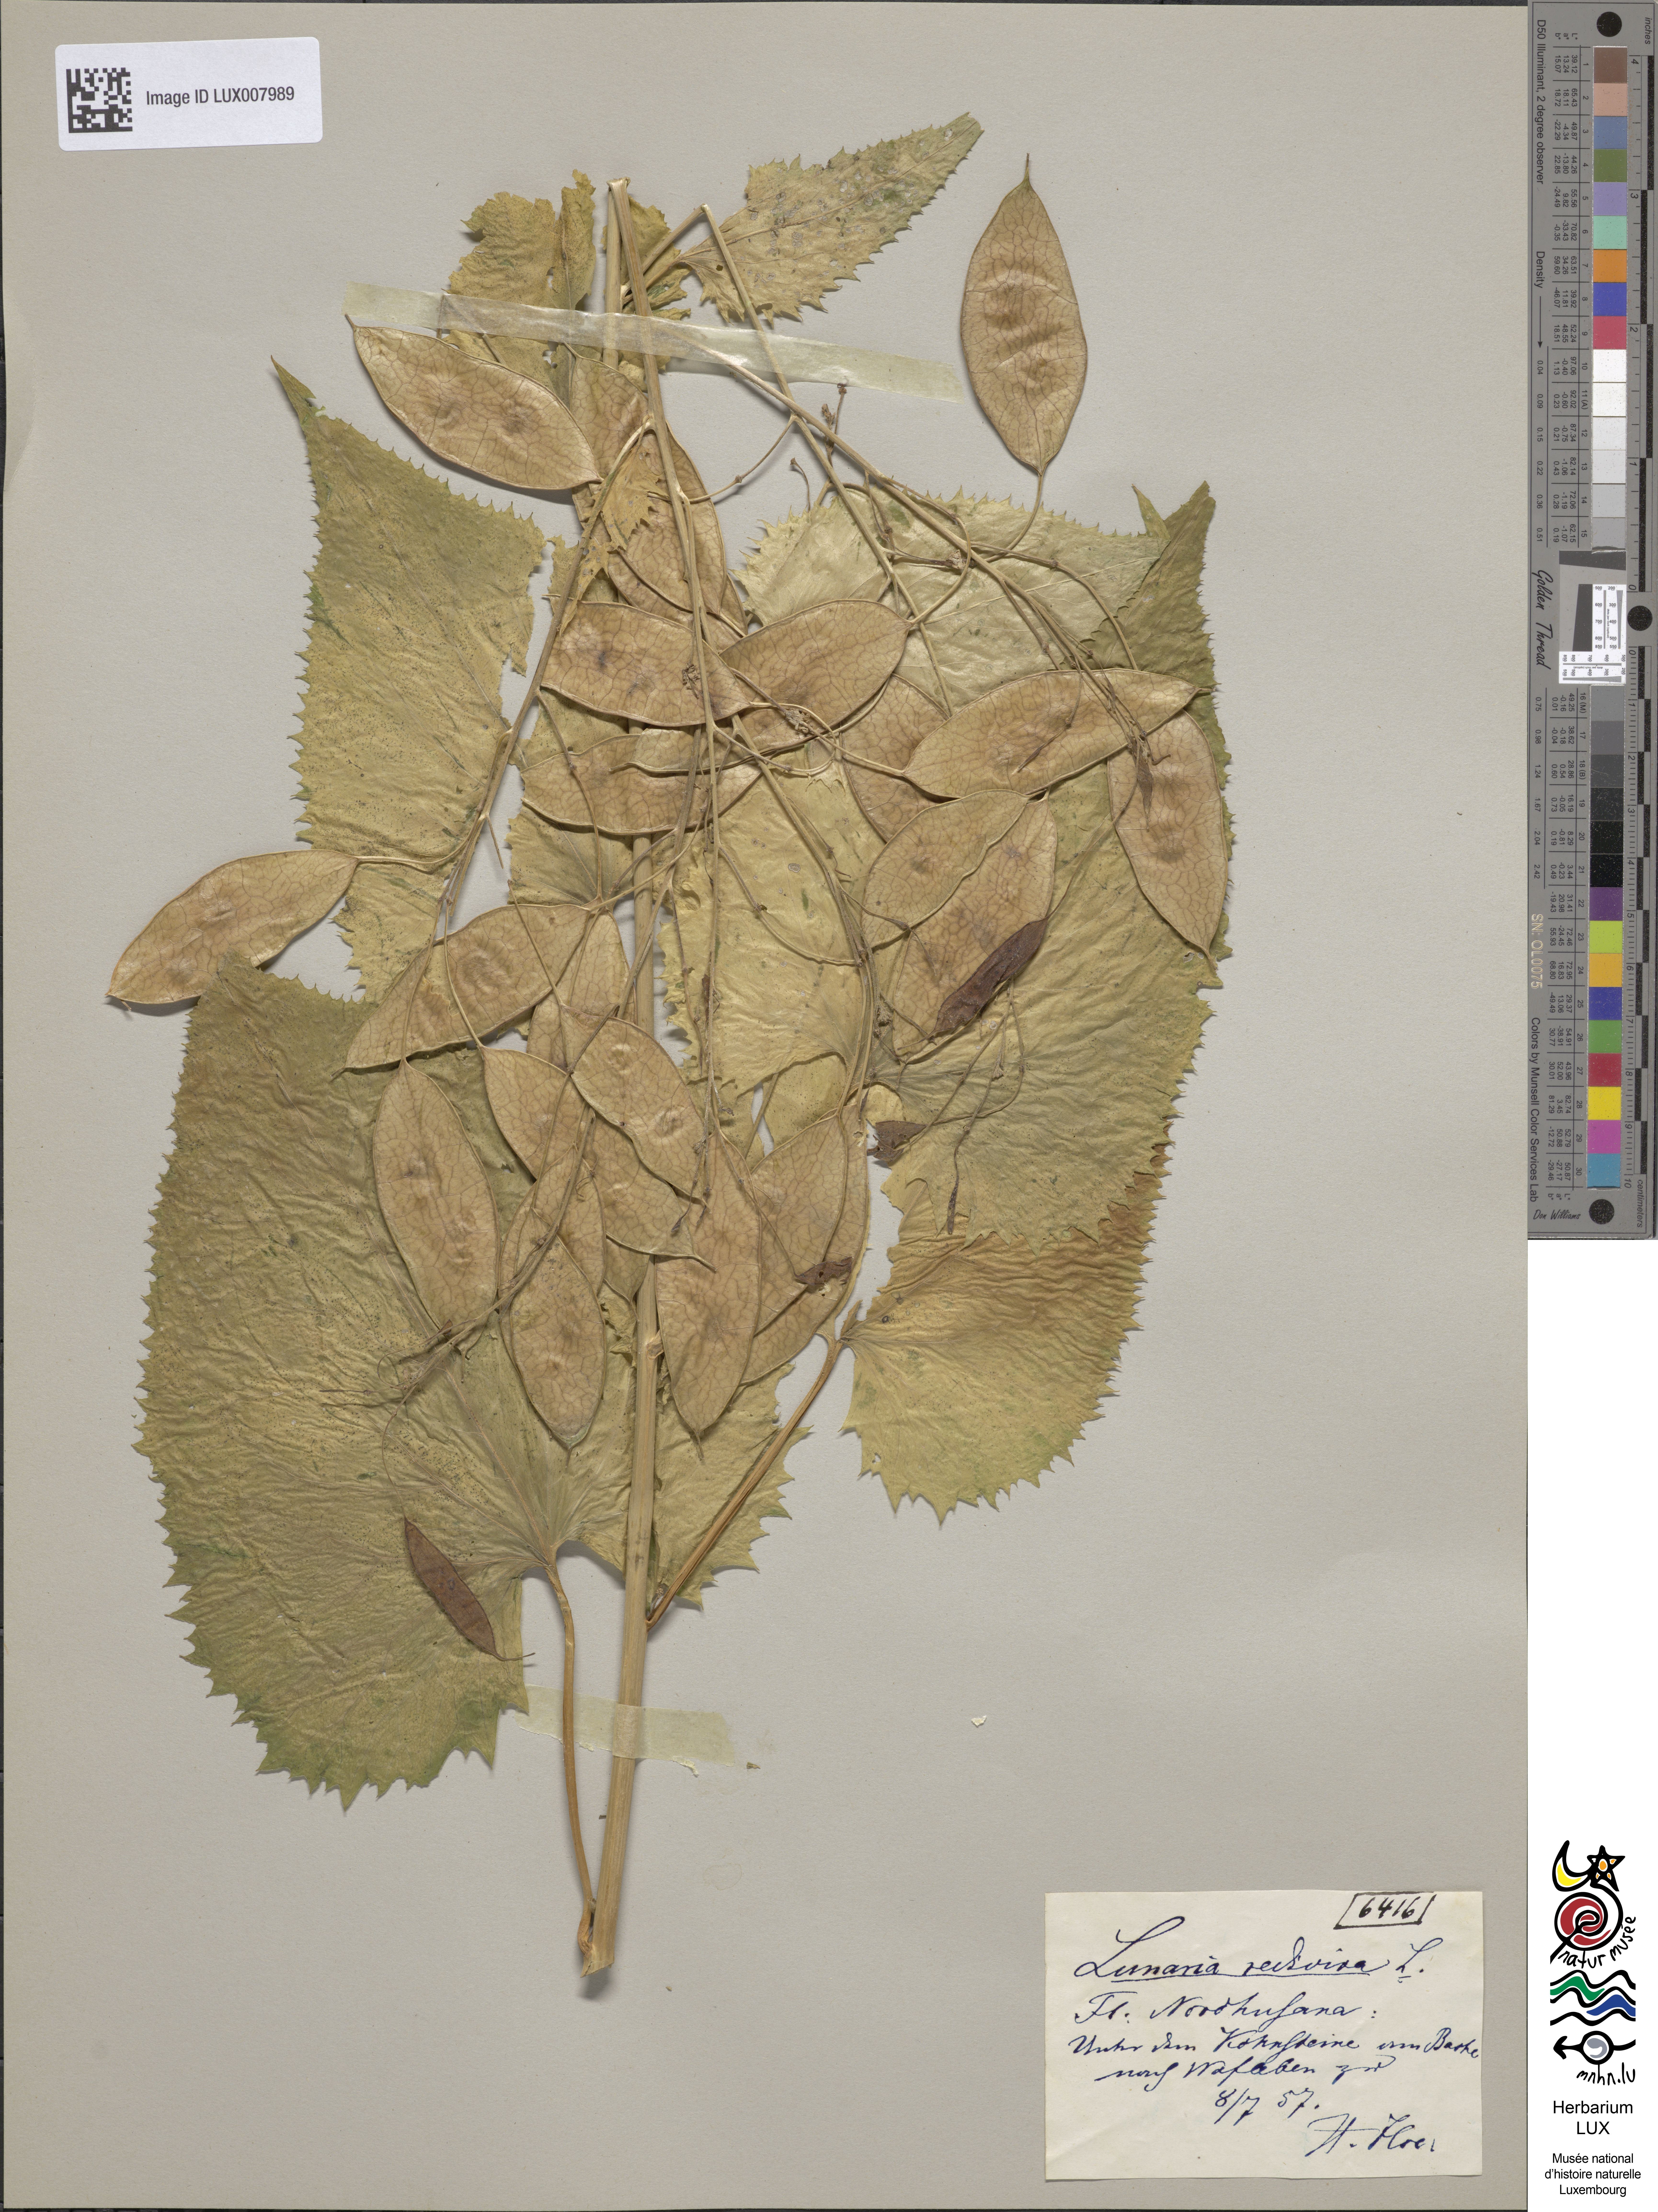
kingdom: Plantae
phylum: Tracheophyta
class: Magnoliopsida
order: Brassicales
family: Brassicaceae
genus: Lunaria
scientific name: Lunaria rediviva
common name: Perennial honesty
